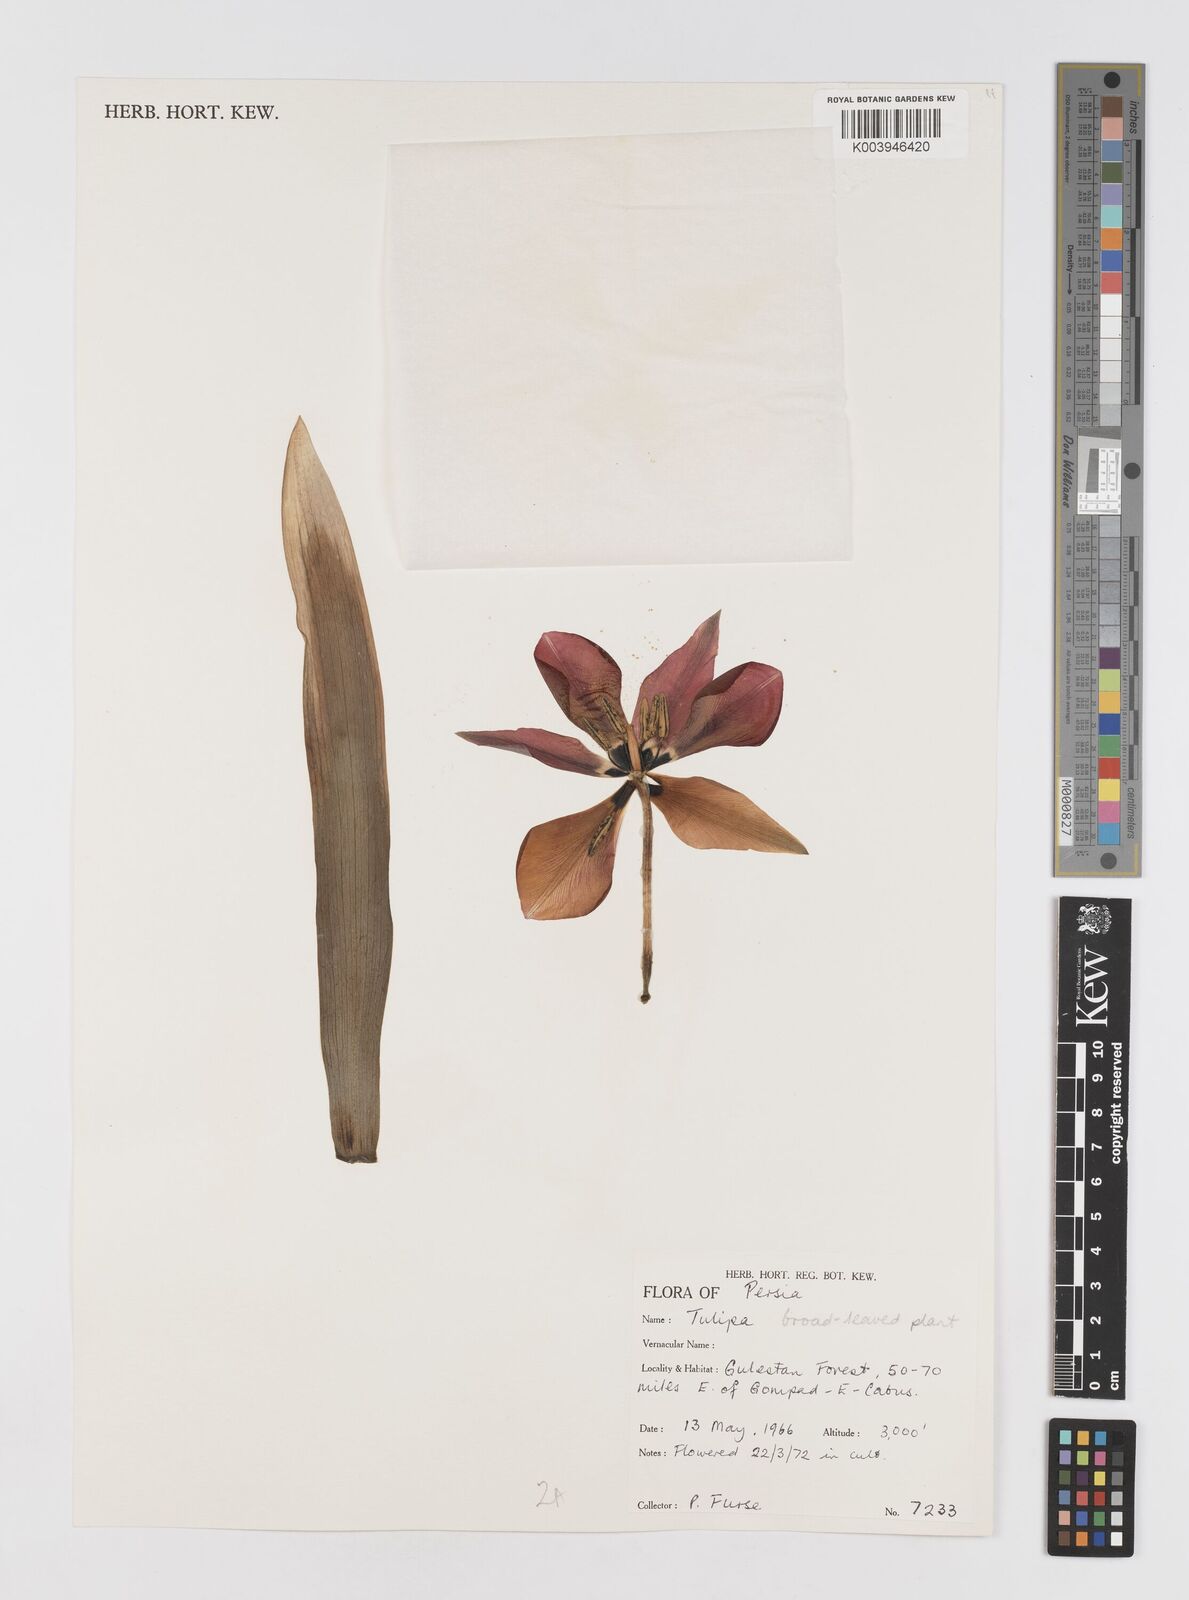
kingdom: Plantae
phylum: Tracheophyta
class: Liliopsida
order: Liliales
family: Liliaceae
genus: Tulipa
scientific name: Tulipa
